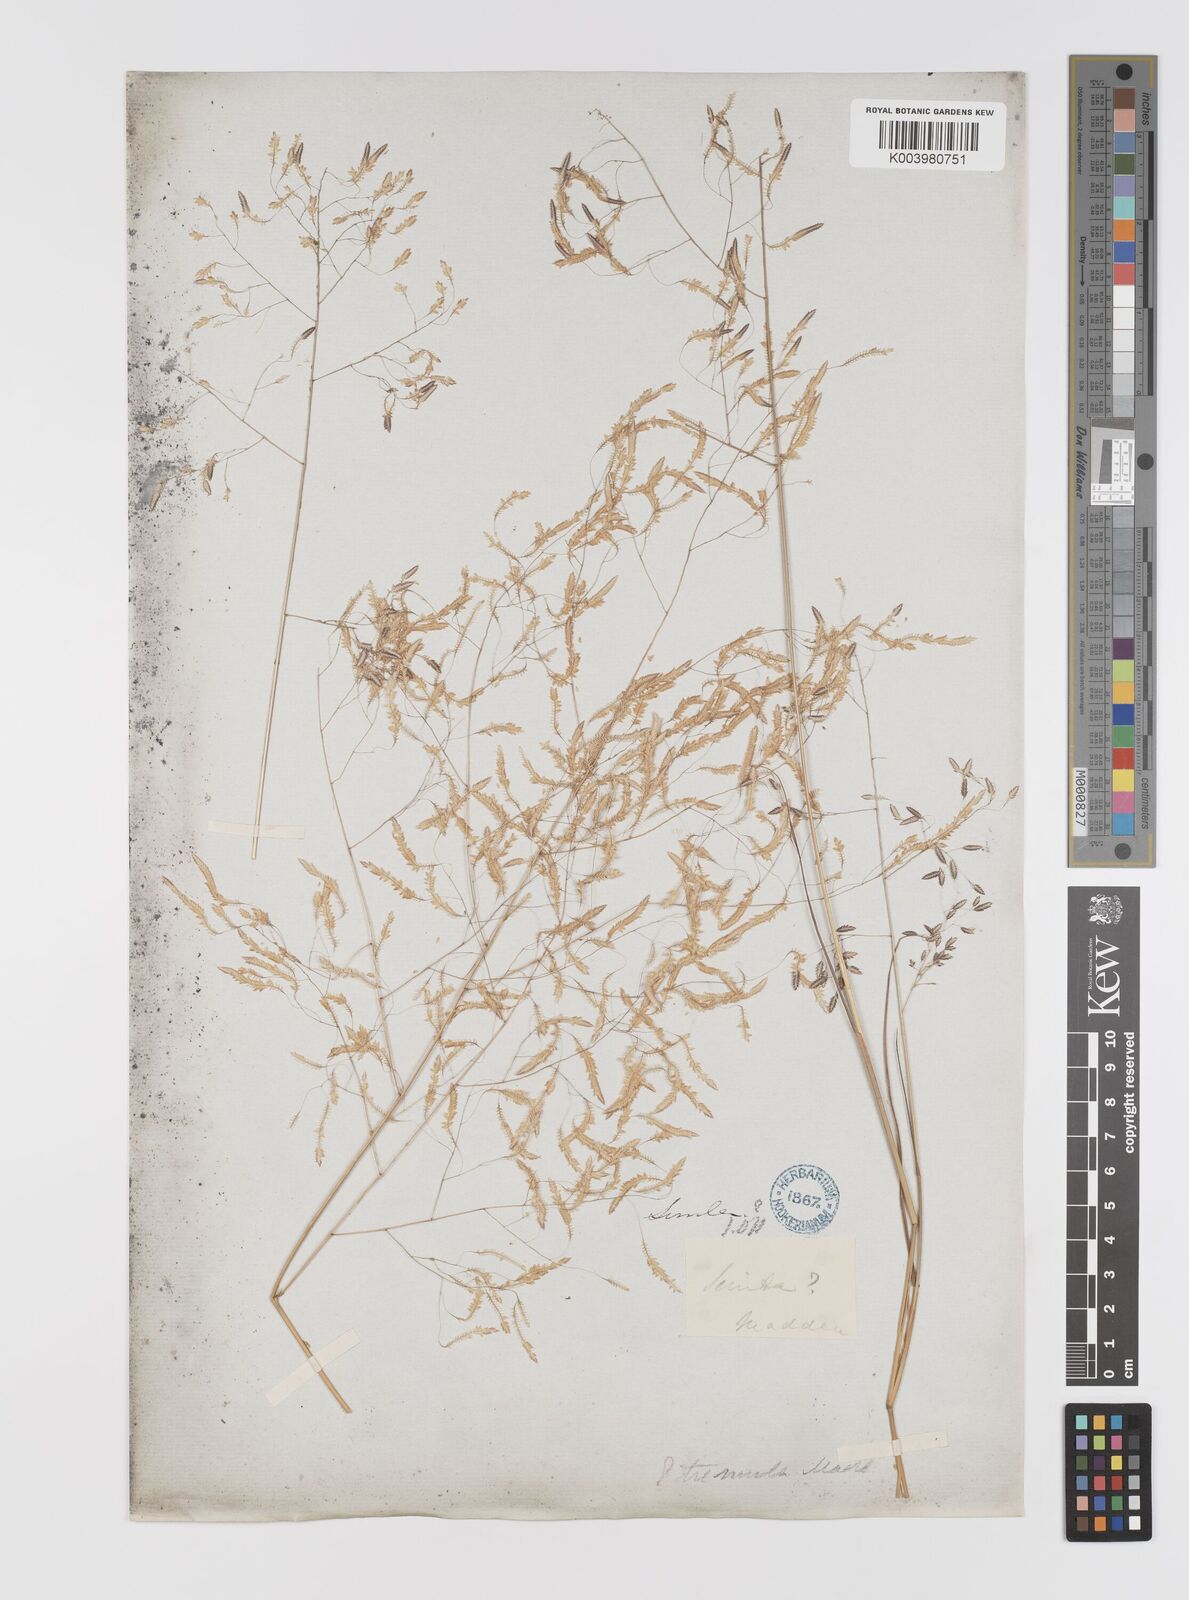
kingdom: Plantae
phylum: Tracheophyta
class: Liliopsida
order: Poales
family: Poaceae
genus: Eragrostis
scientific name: Eragrostis tremula
